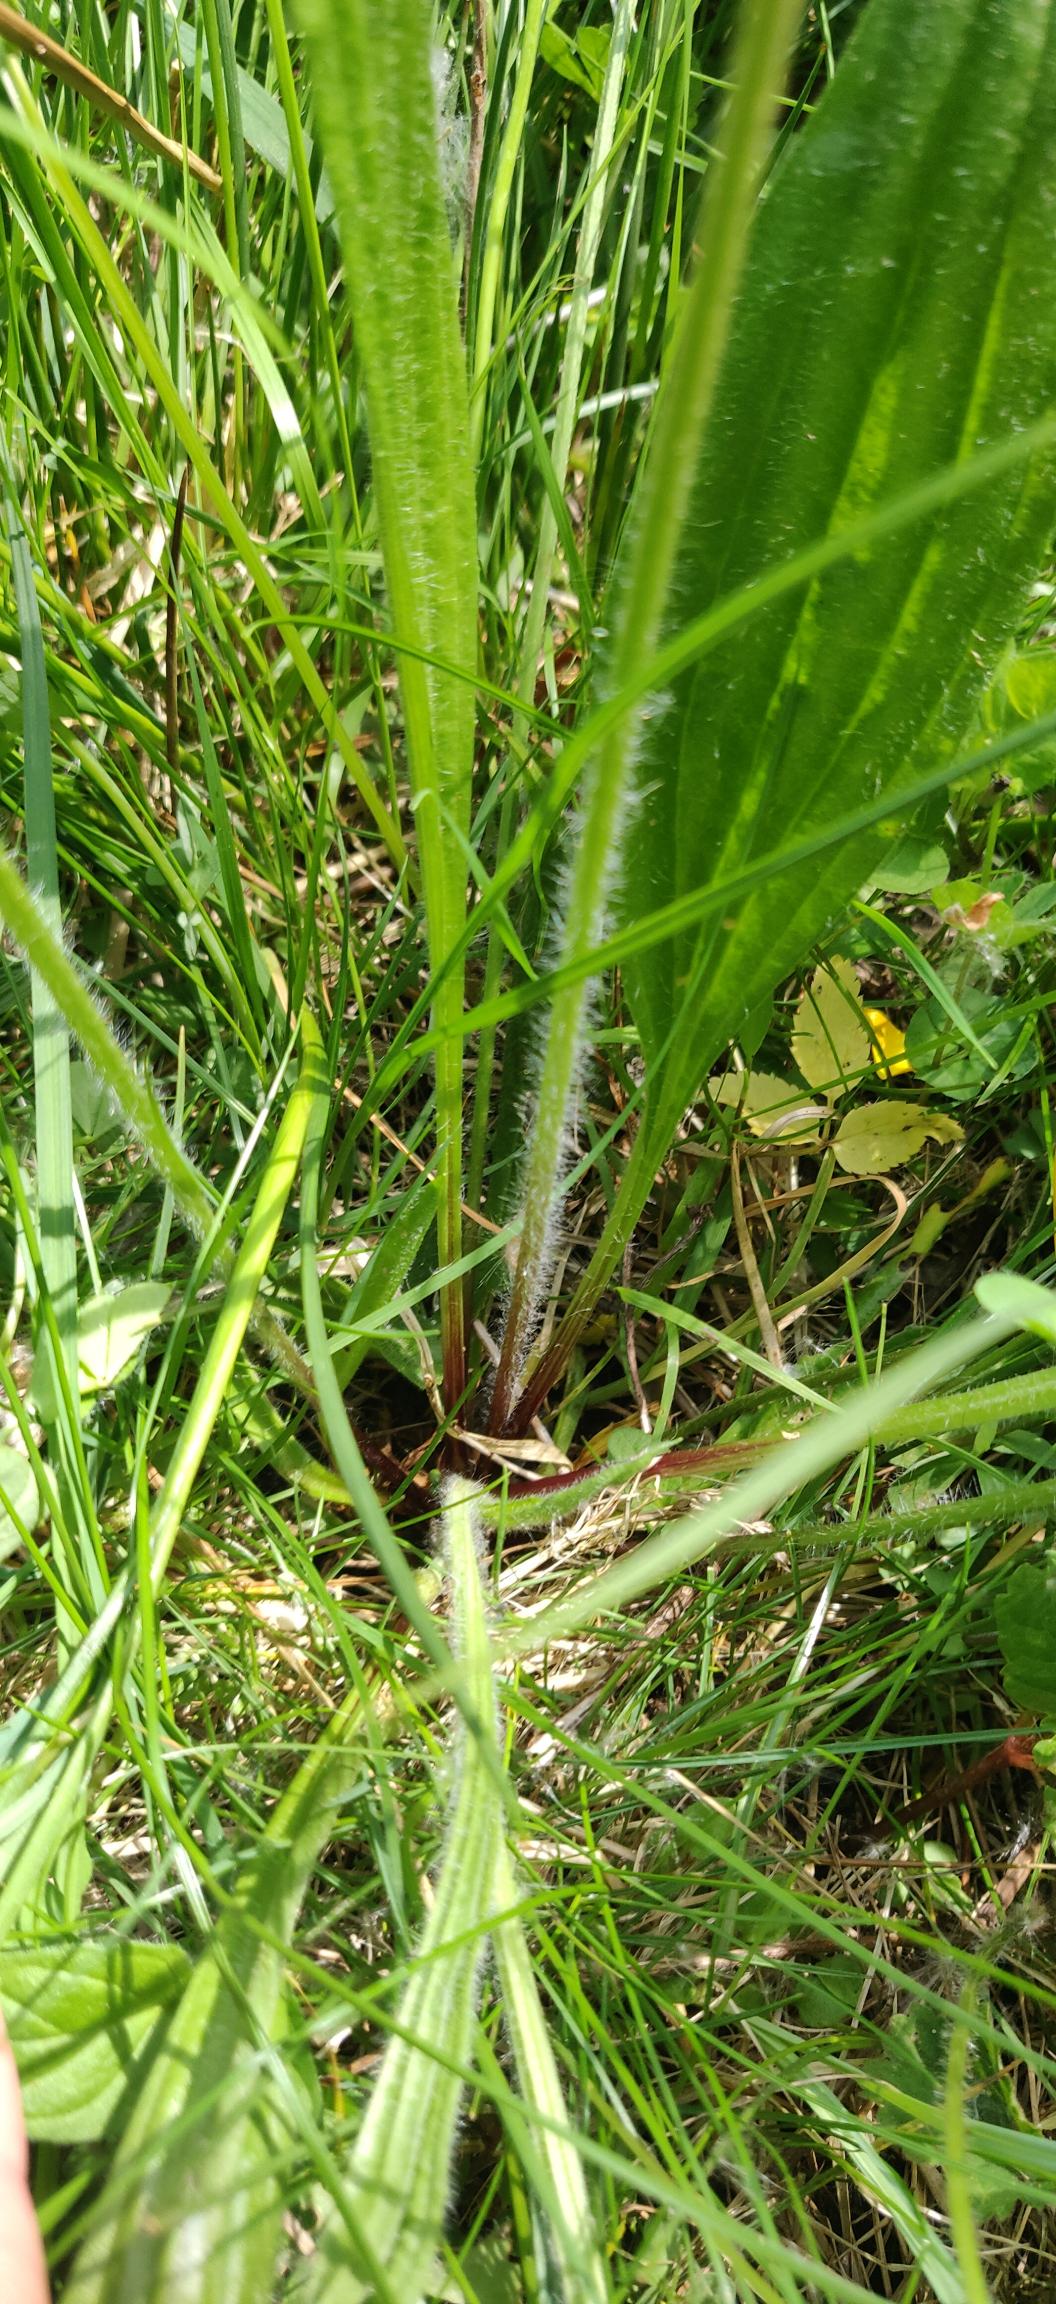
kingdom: Plantae
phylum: Tracheophyta
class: Magnoliopsida
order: Lamiales
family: Plantaginaceae
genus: Plantago
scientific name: Plantago lanceolata
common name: Lancet-vejbred
